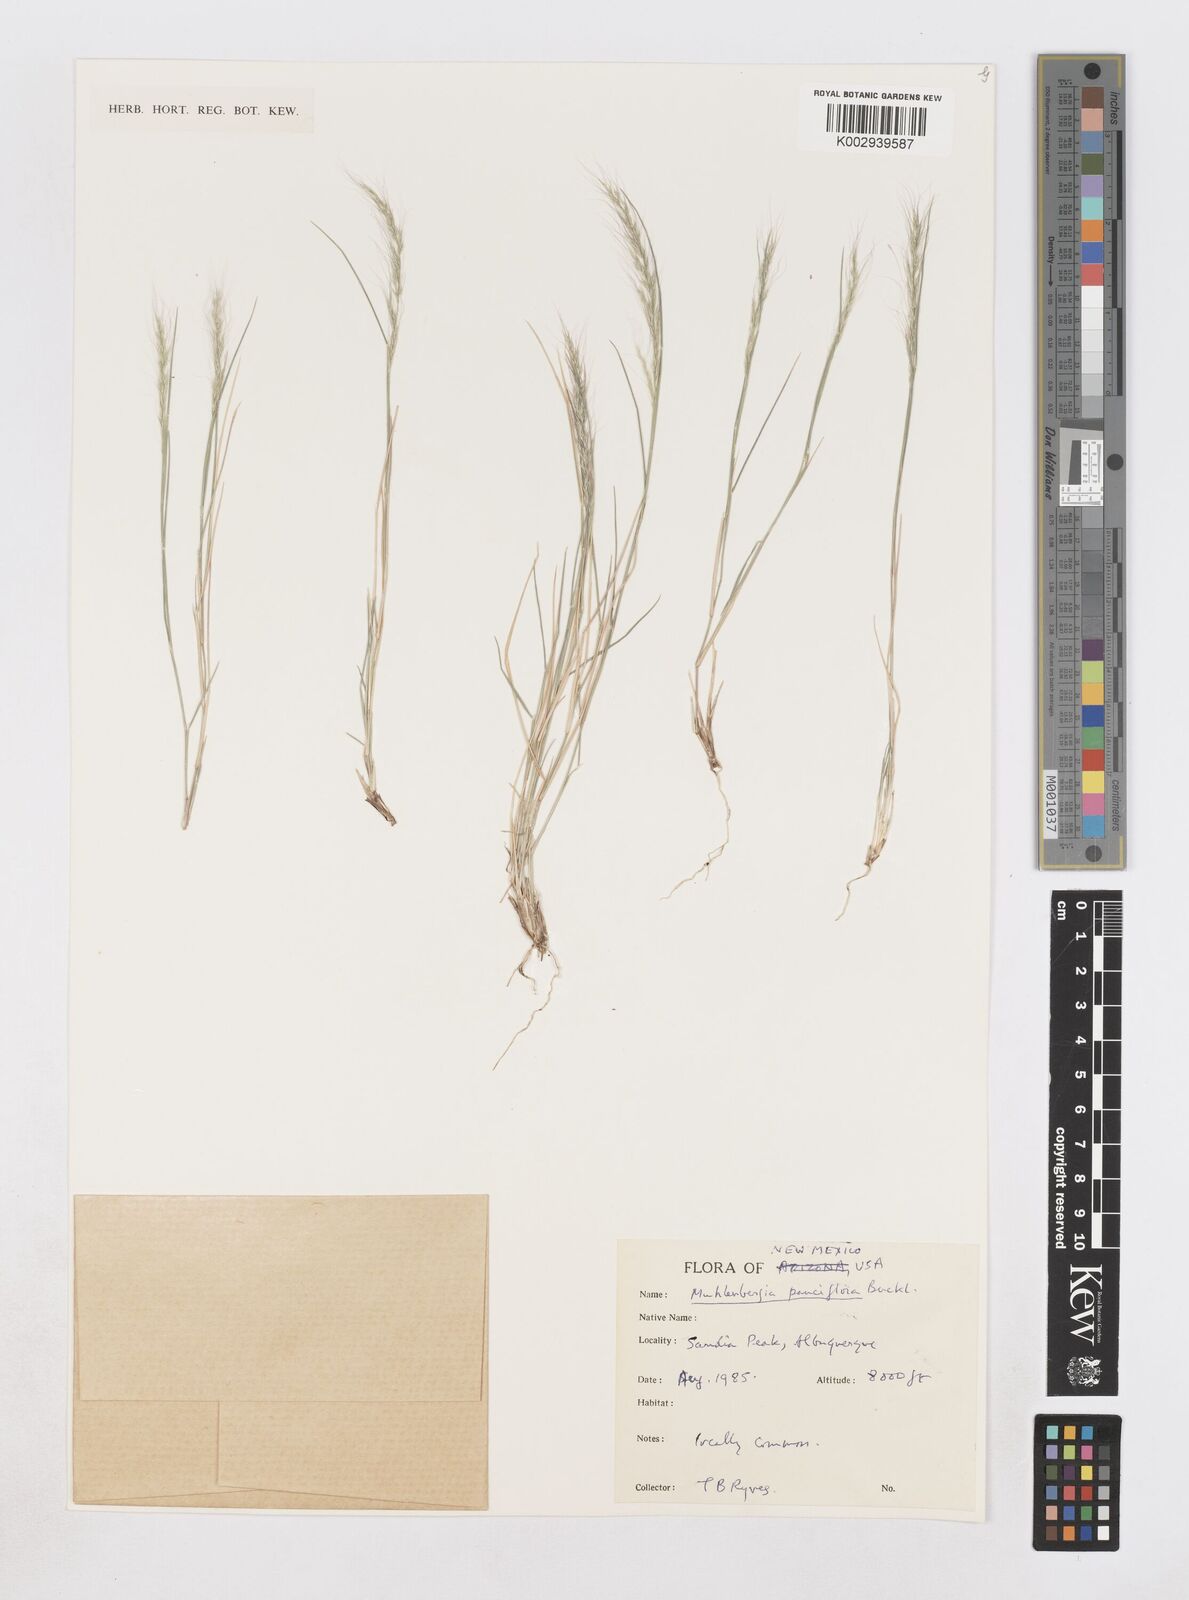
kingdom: Plantae
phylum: Tracheophyta
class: Liliopsida
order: Poales
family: Poaceae
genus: Muhlenbergia
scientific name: Muhlenbergia pauciflora
